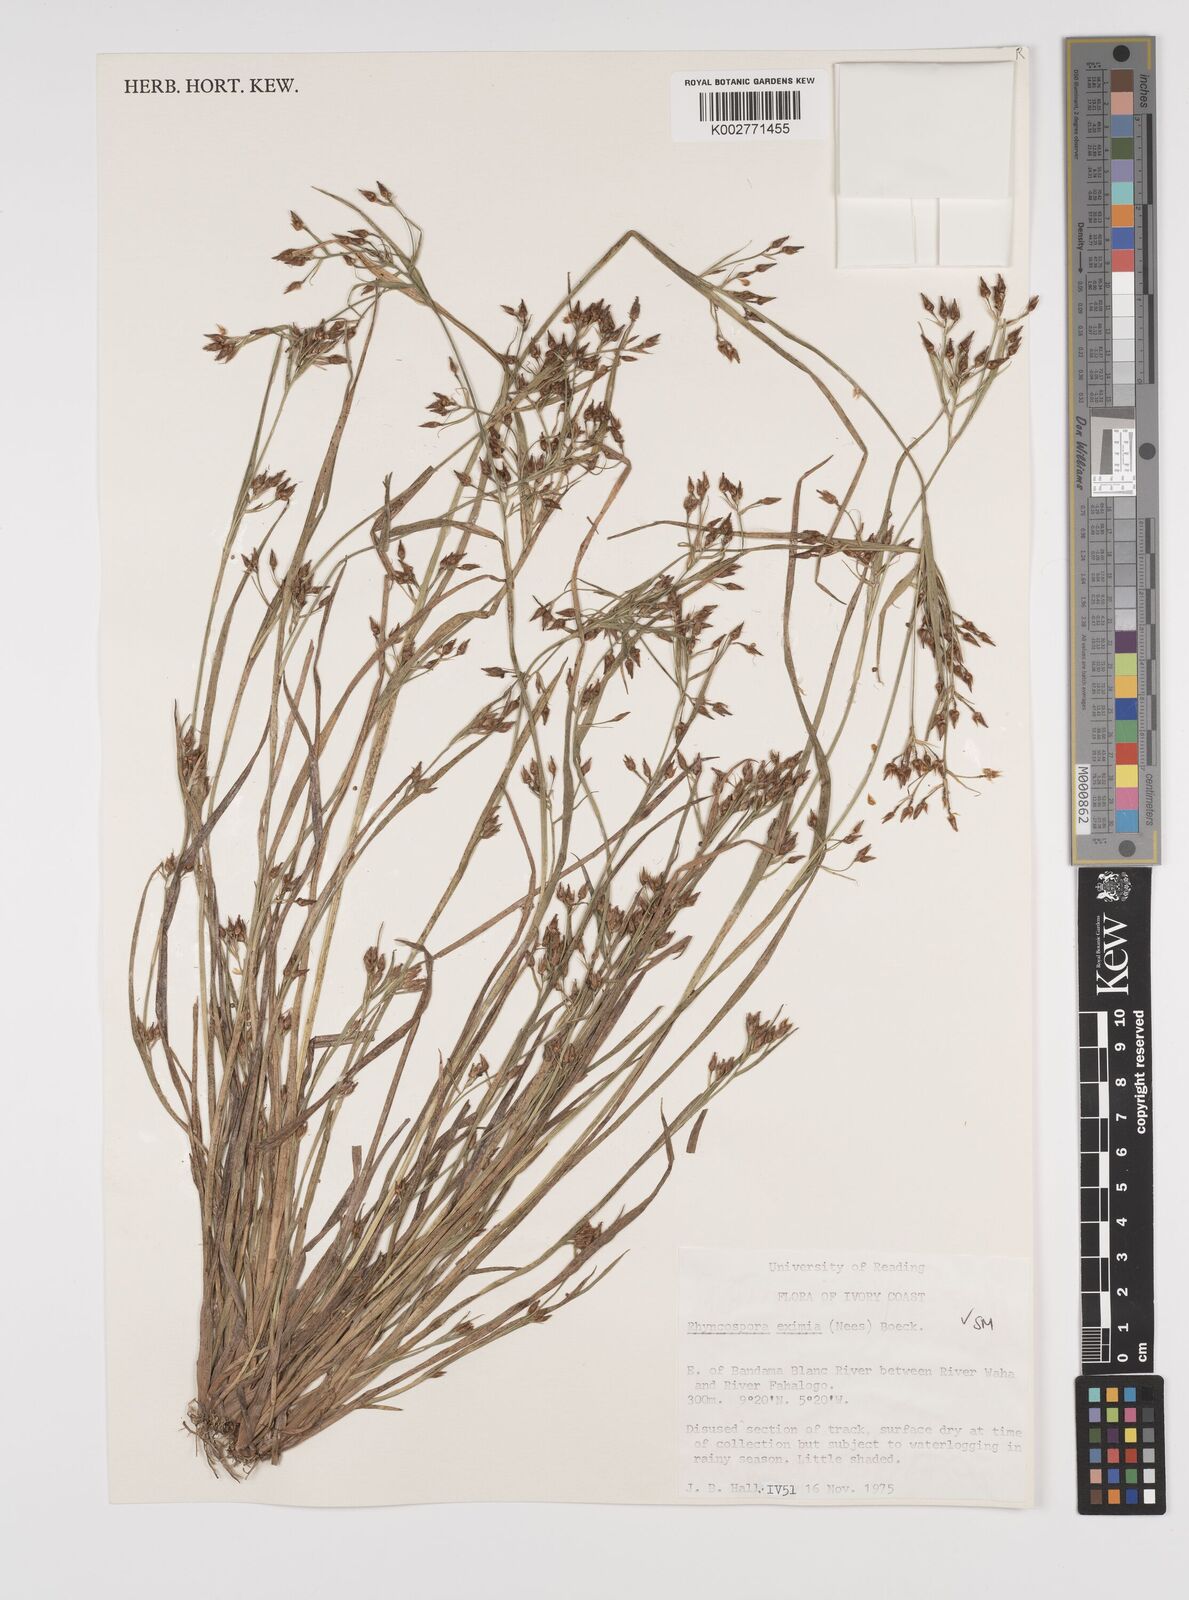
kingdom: Plantae
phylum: Tracheophyta
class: Liliopsida
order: Poales
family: Cyperaceae
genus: Rhynchospora
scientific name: Rhynchospora eximia
